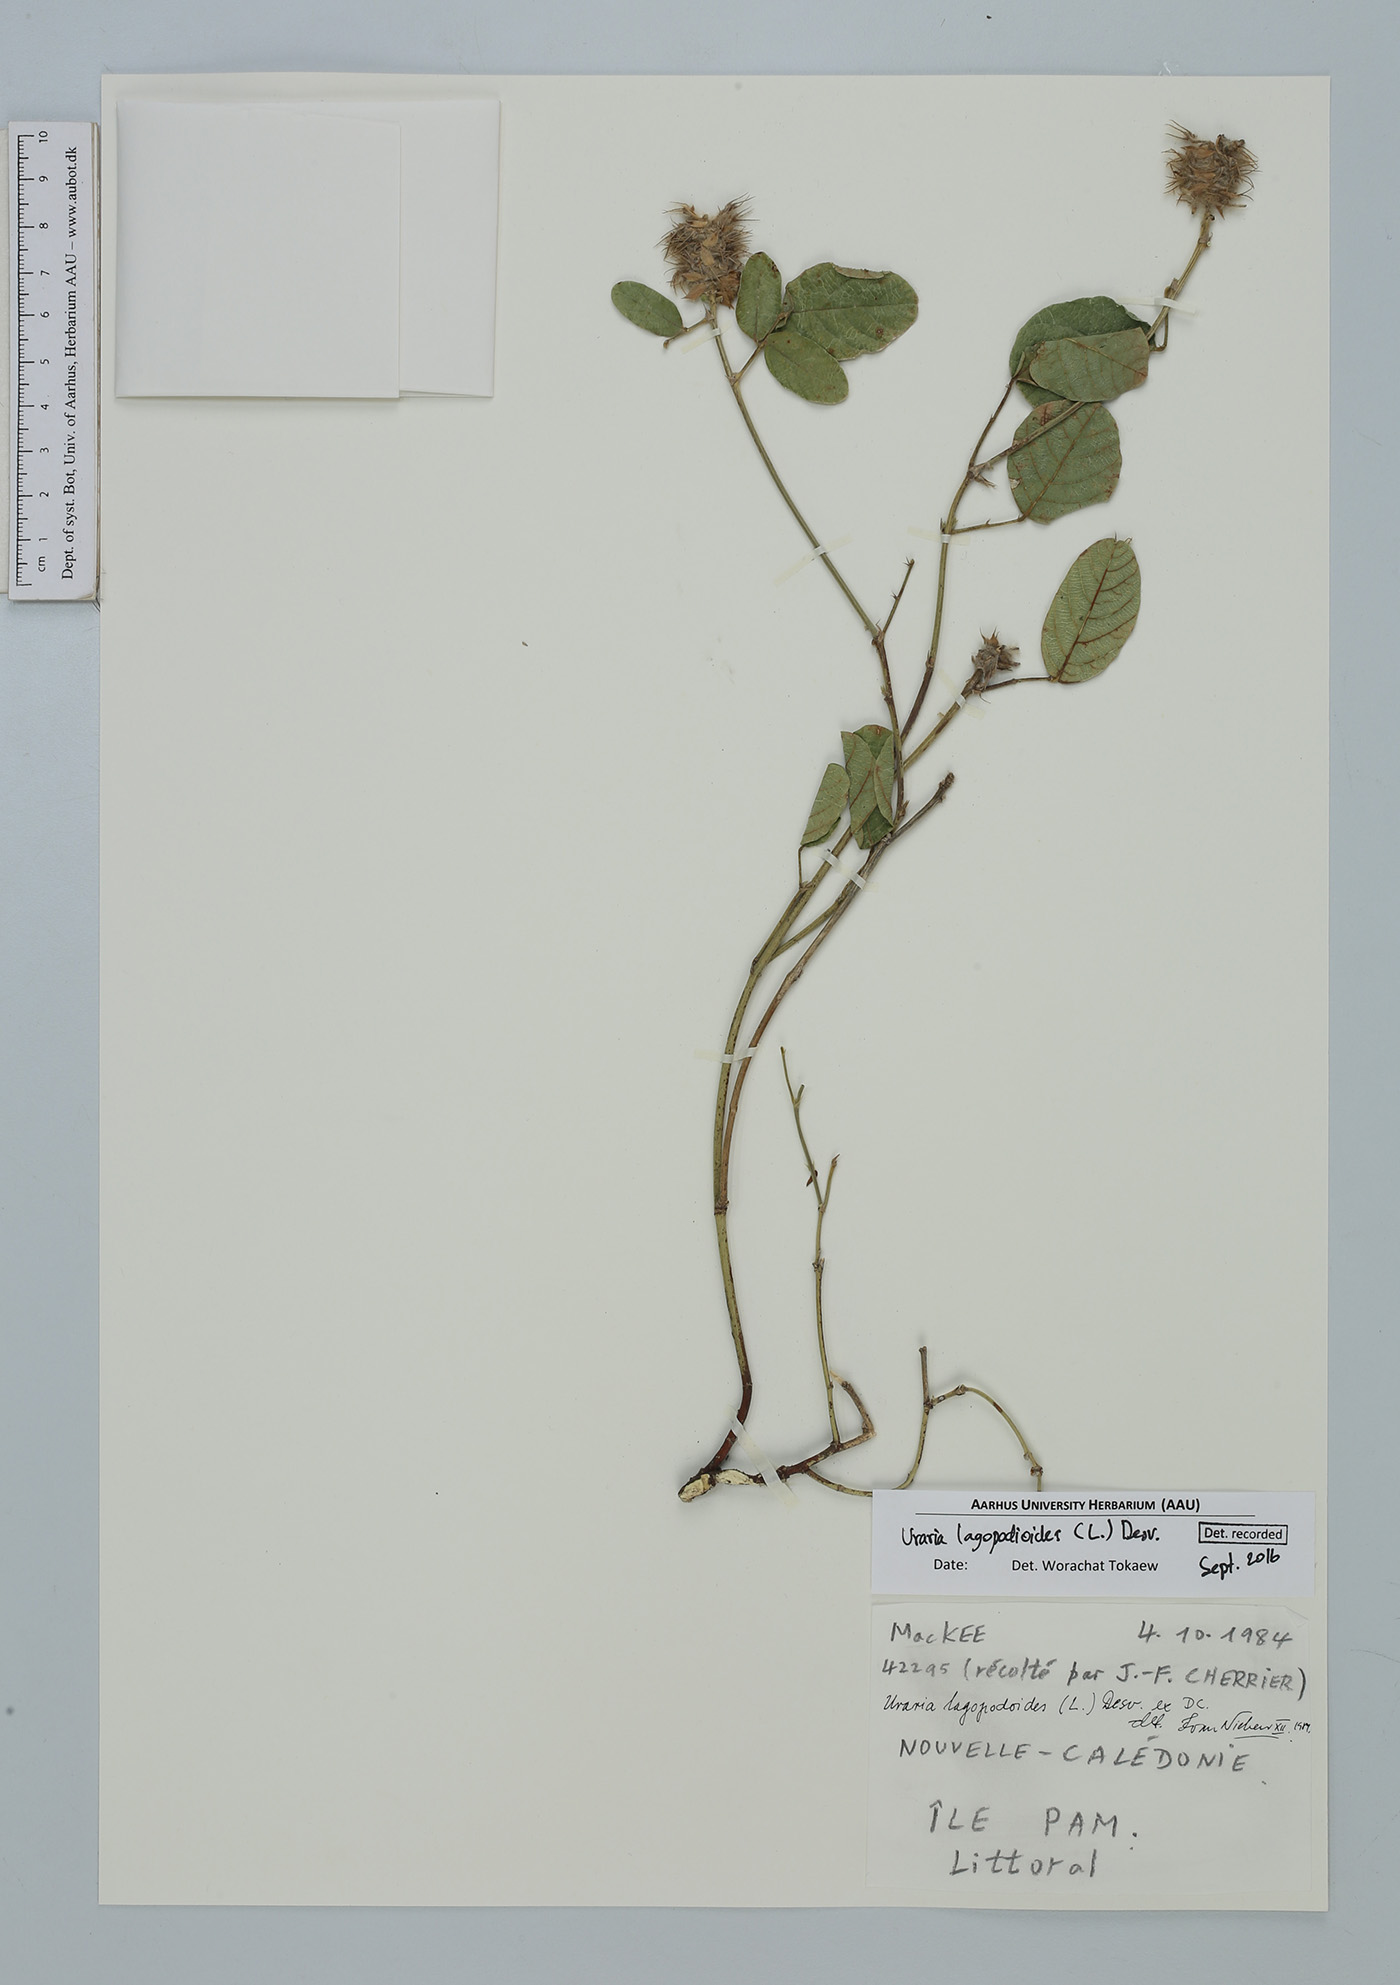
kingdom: Plantae
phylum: Tracheophyta
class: Magnoliopsida
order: Fabales
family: Fabaceae
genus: Uraria
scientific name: Uraria lagopodioides
